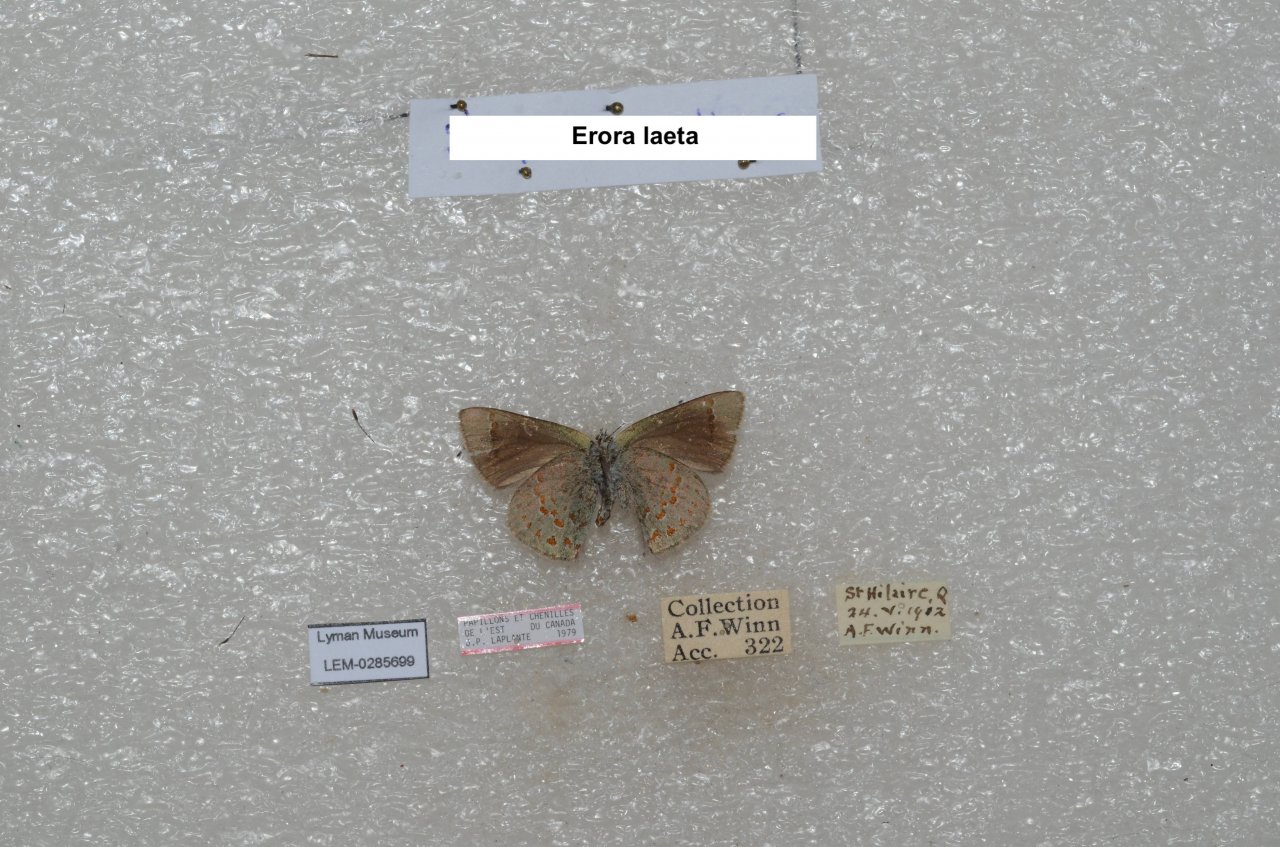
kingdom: Animalia
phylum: Arthropoda
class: Insecta
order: Lepidoptera
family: Lycaenidae
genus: Erora
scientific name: Erora laeta
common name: Early Hairstreak
